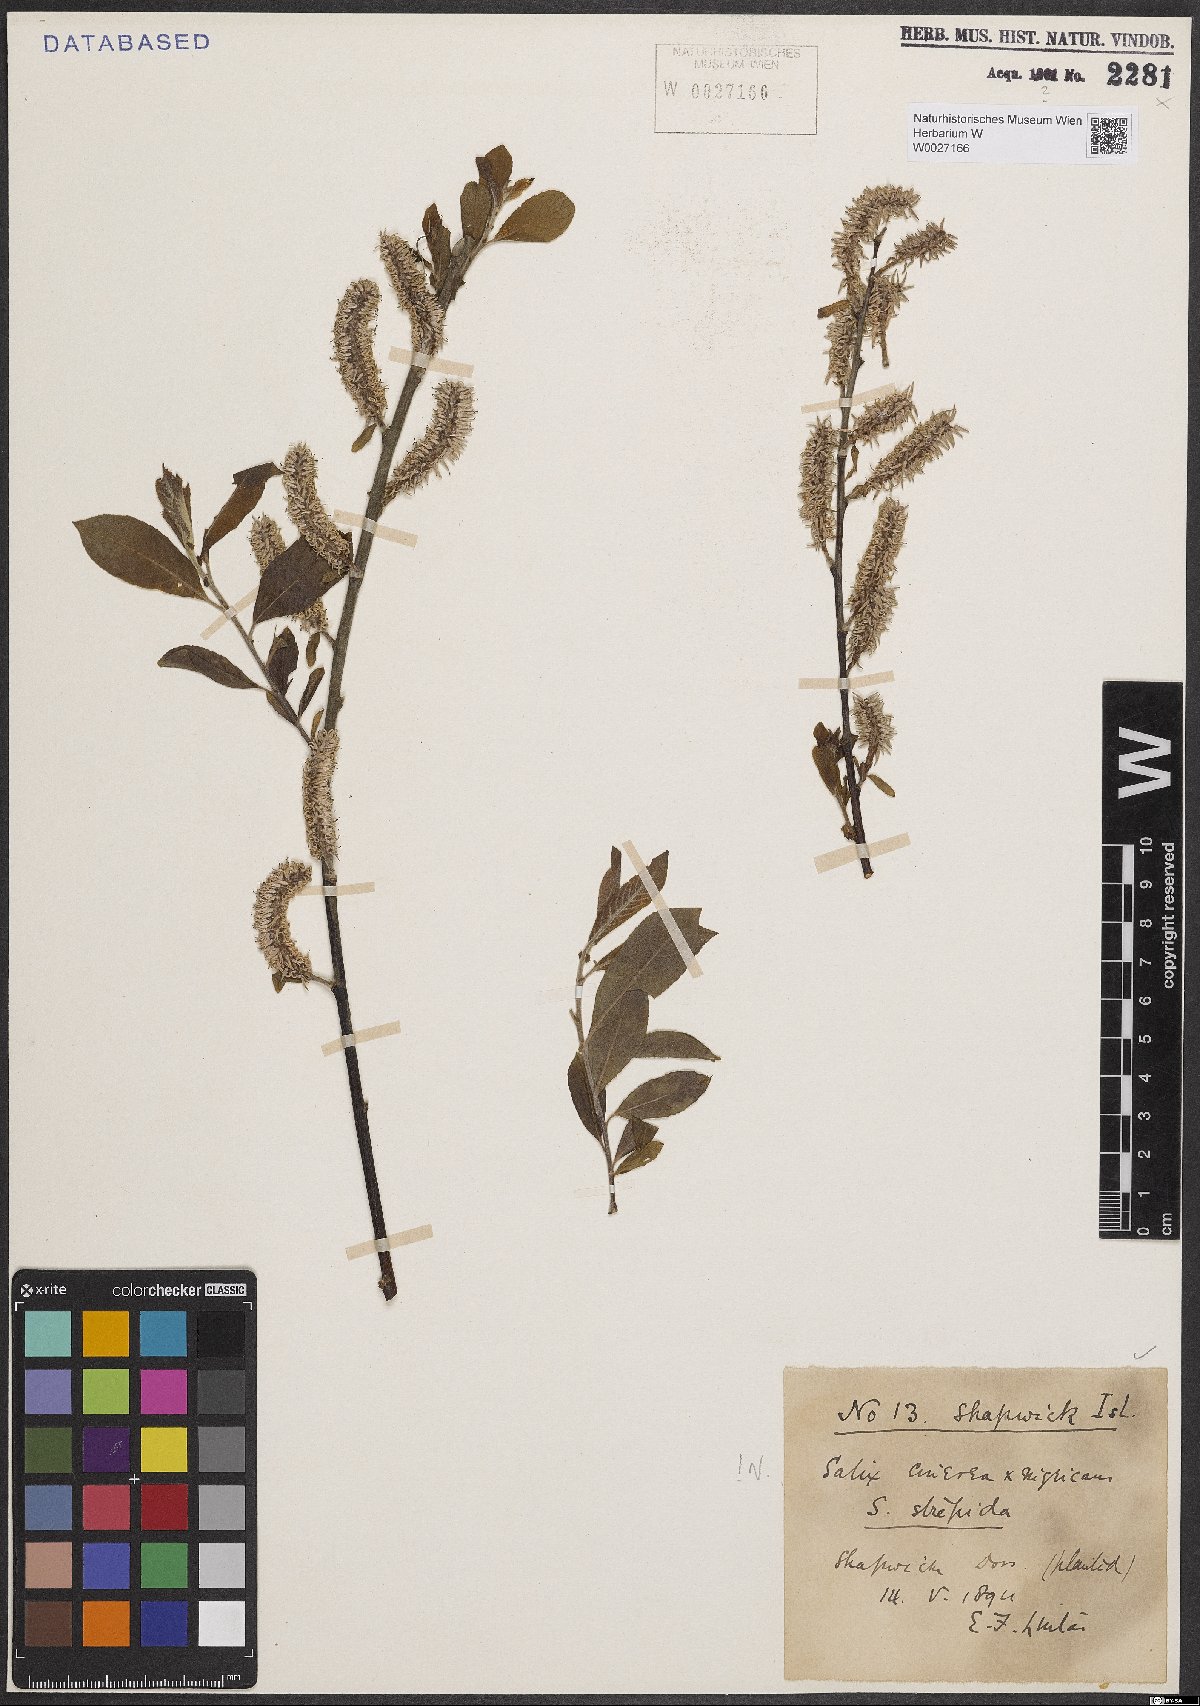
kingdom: Plantae
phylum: Tracheophyta
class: Magnoliopsida
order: Malpighiales
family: Salicaceae
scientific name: Salicaceae
